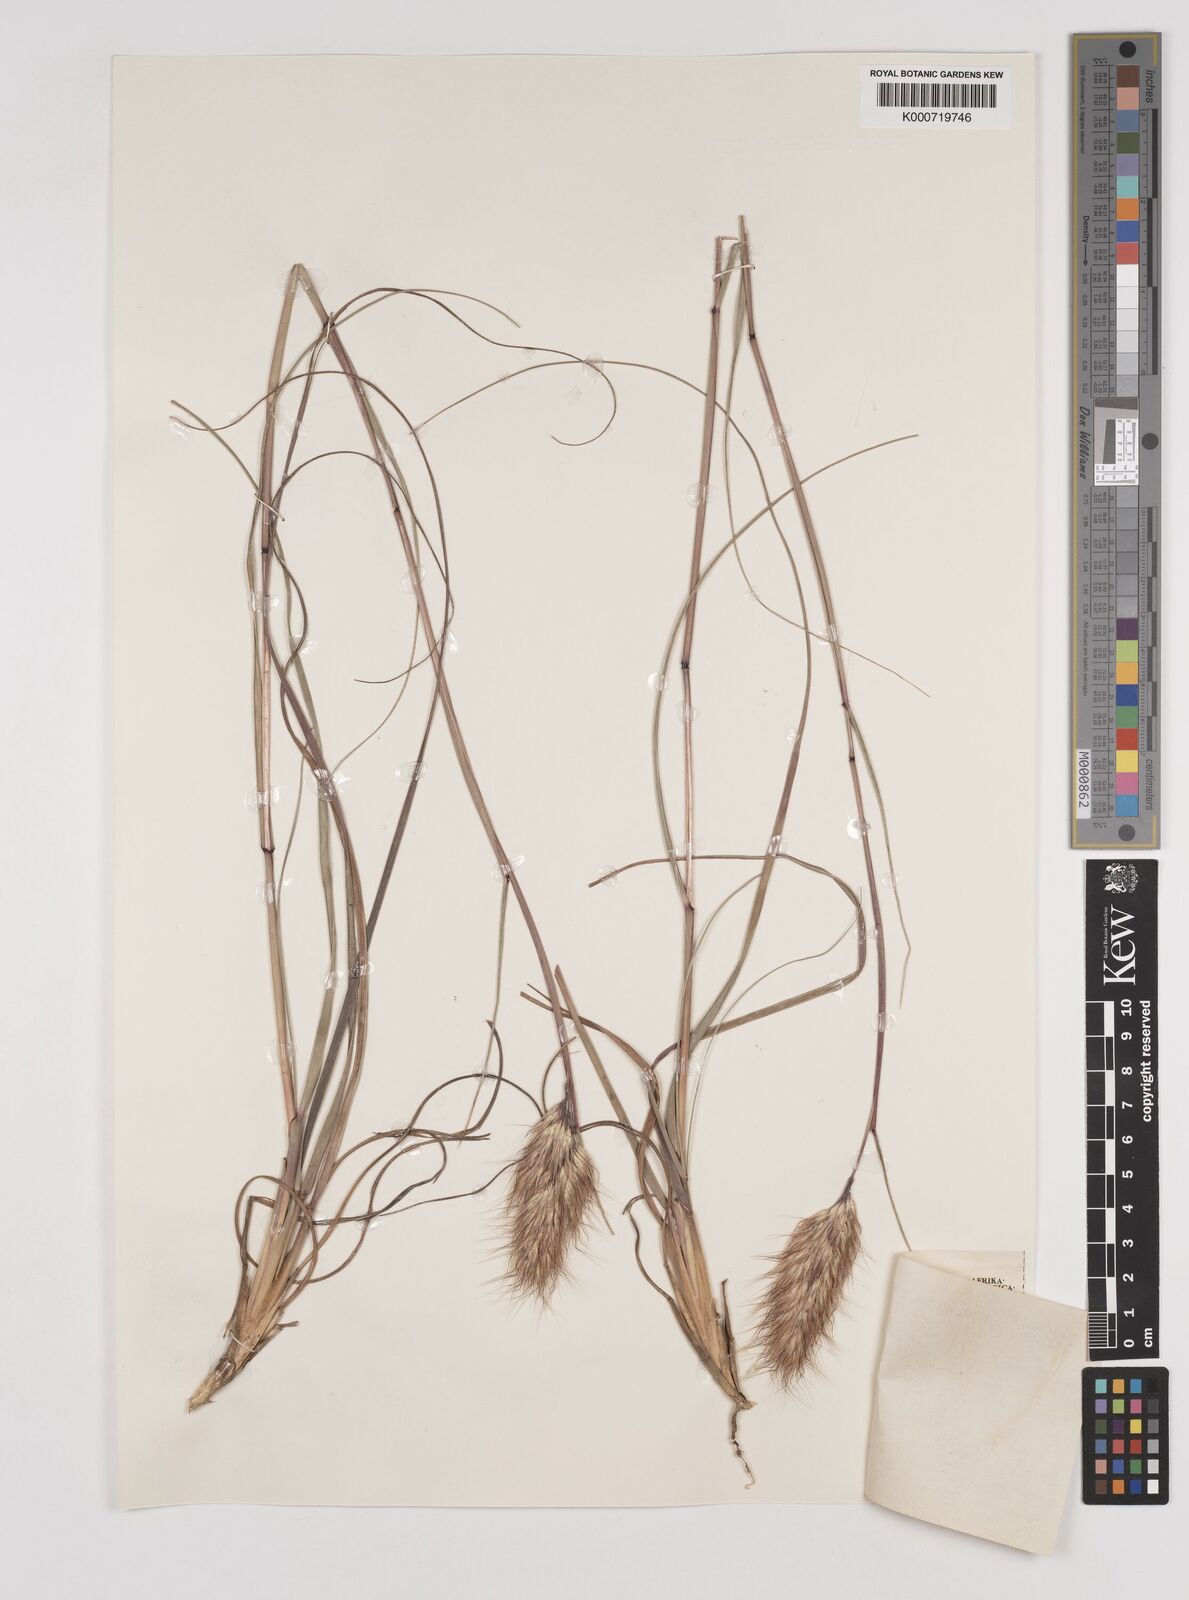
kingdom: Plantae
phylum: Tracheophyta
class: Liliopsida
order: Poales
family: Poaceae
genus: Pentameris
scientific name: Pentameris curvifolia
